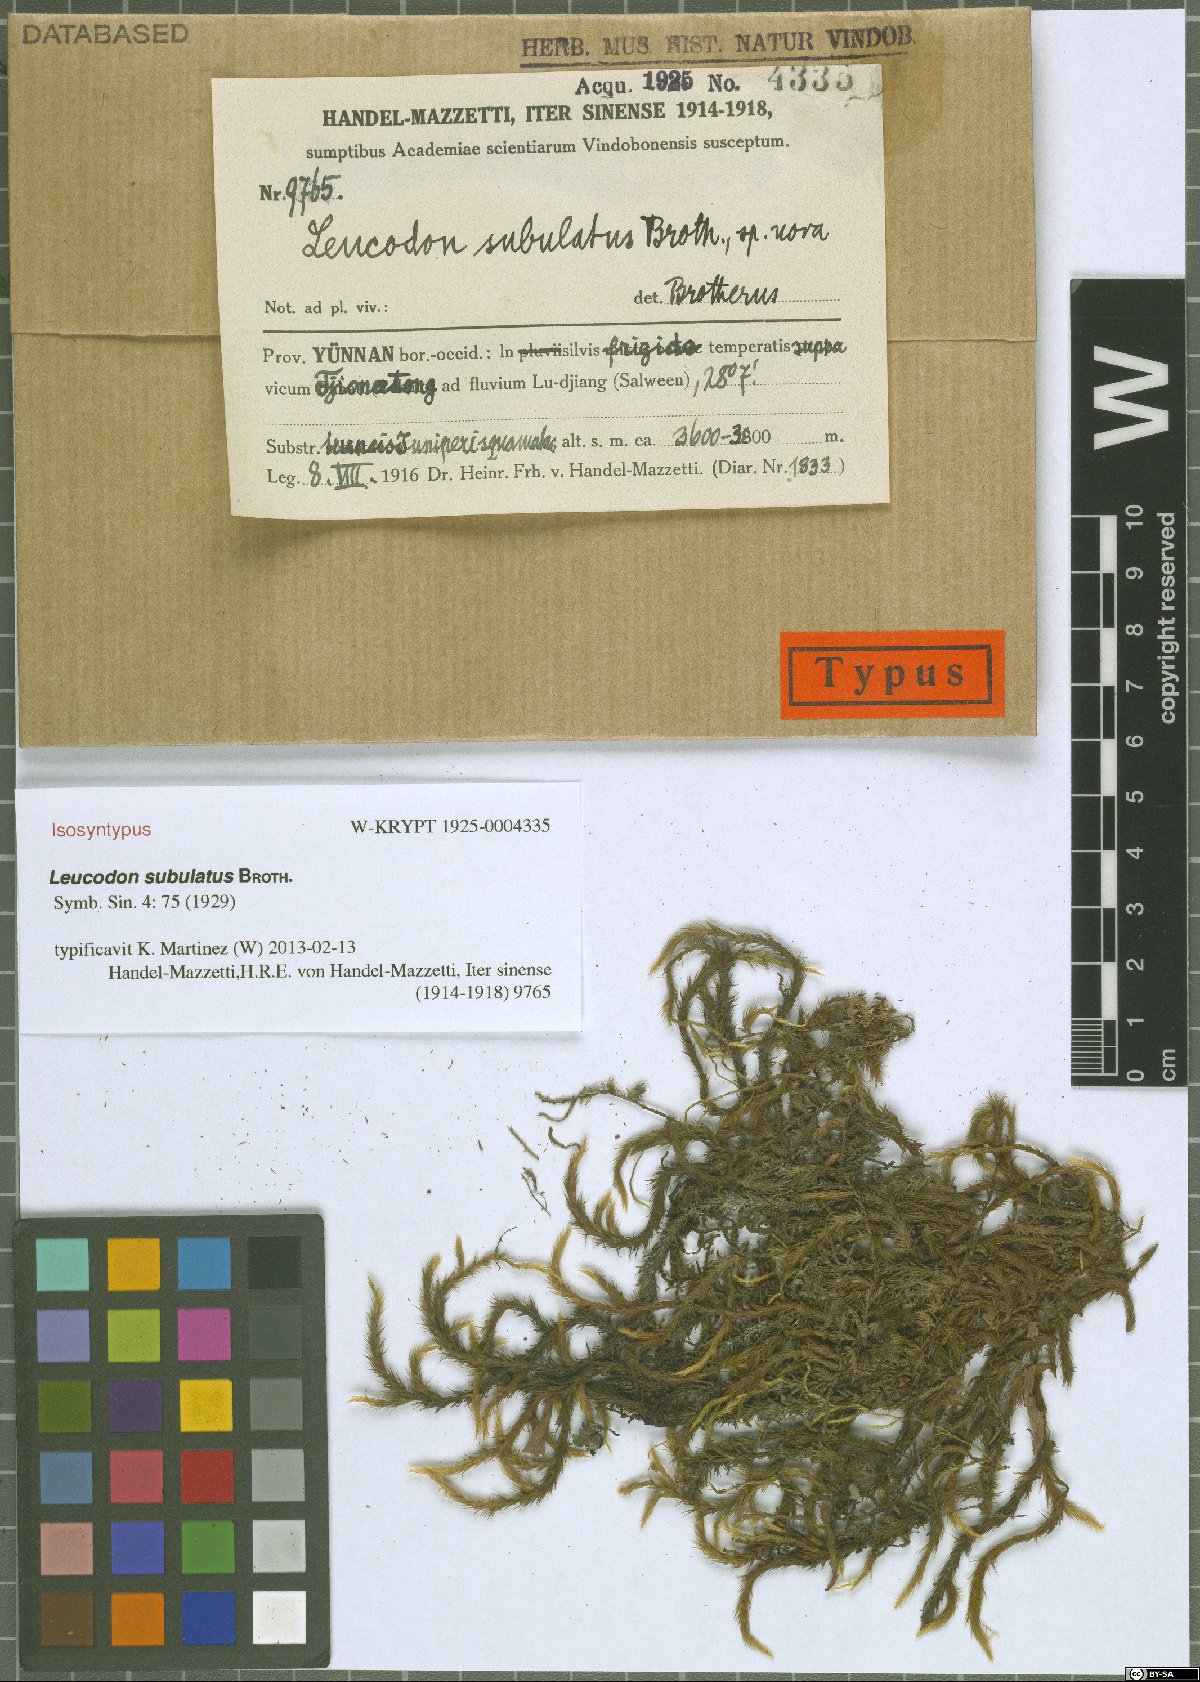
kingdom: Plantae
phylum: Bryophyta
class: Bryopsida
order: Hypnales
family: Leucodontaceae
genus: Leucodon
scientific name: Leucodon subulatus
